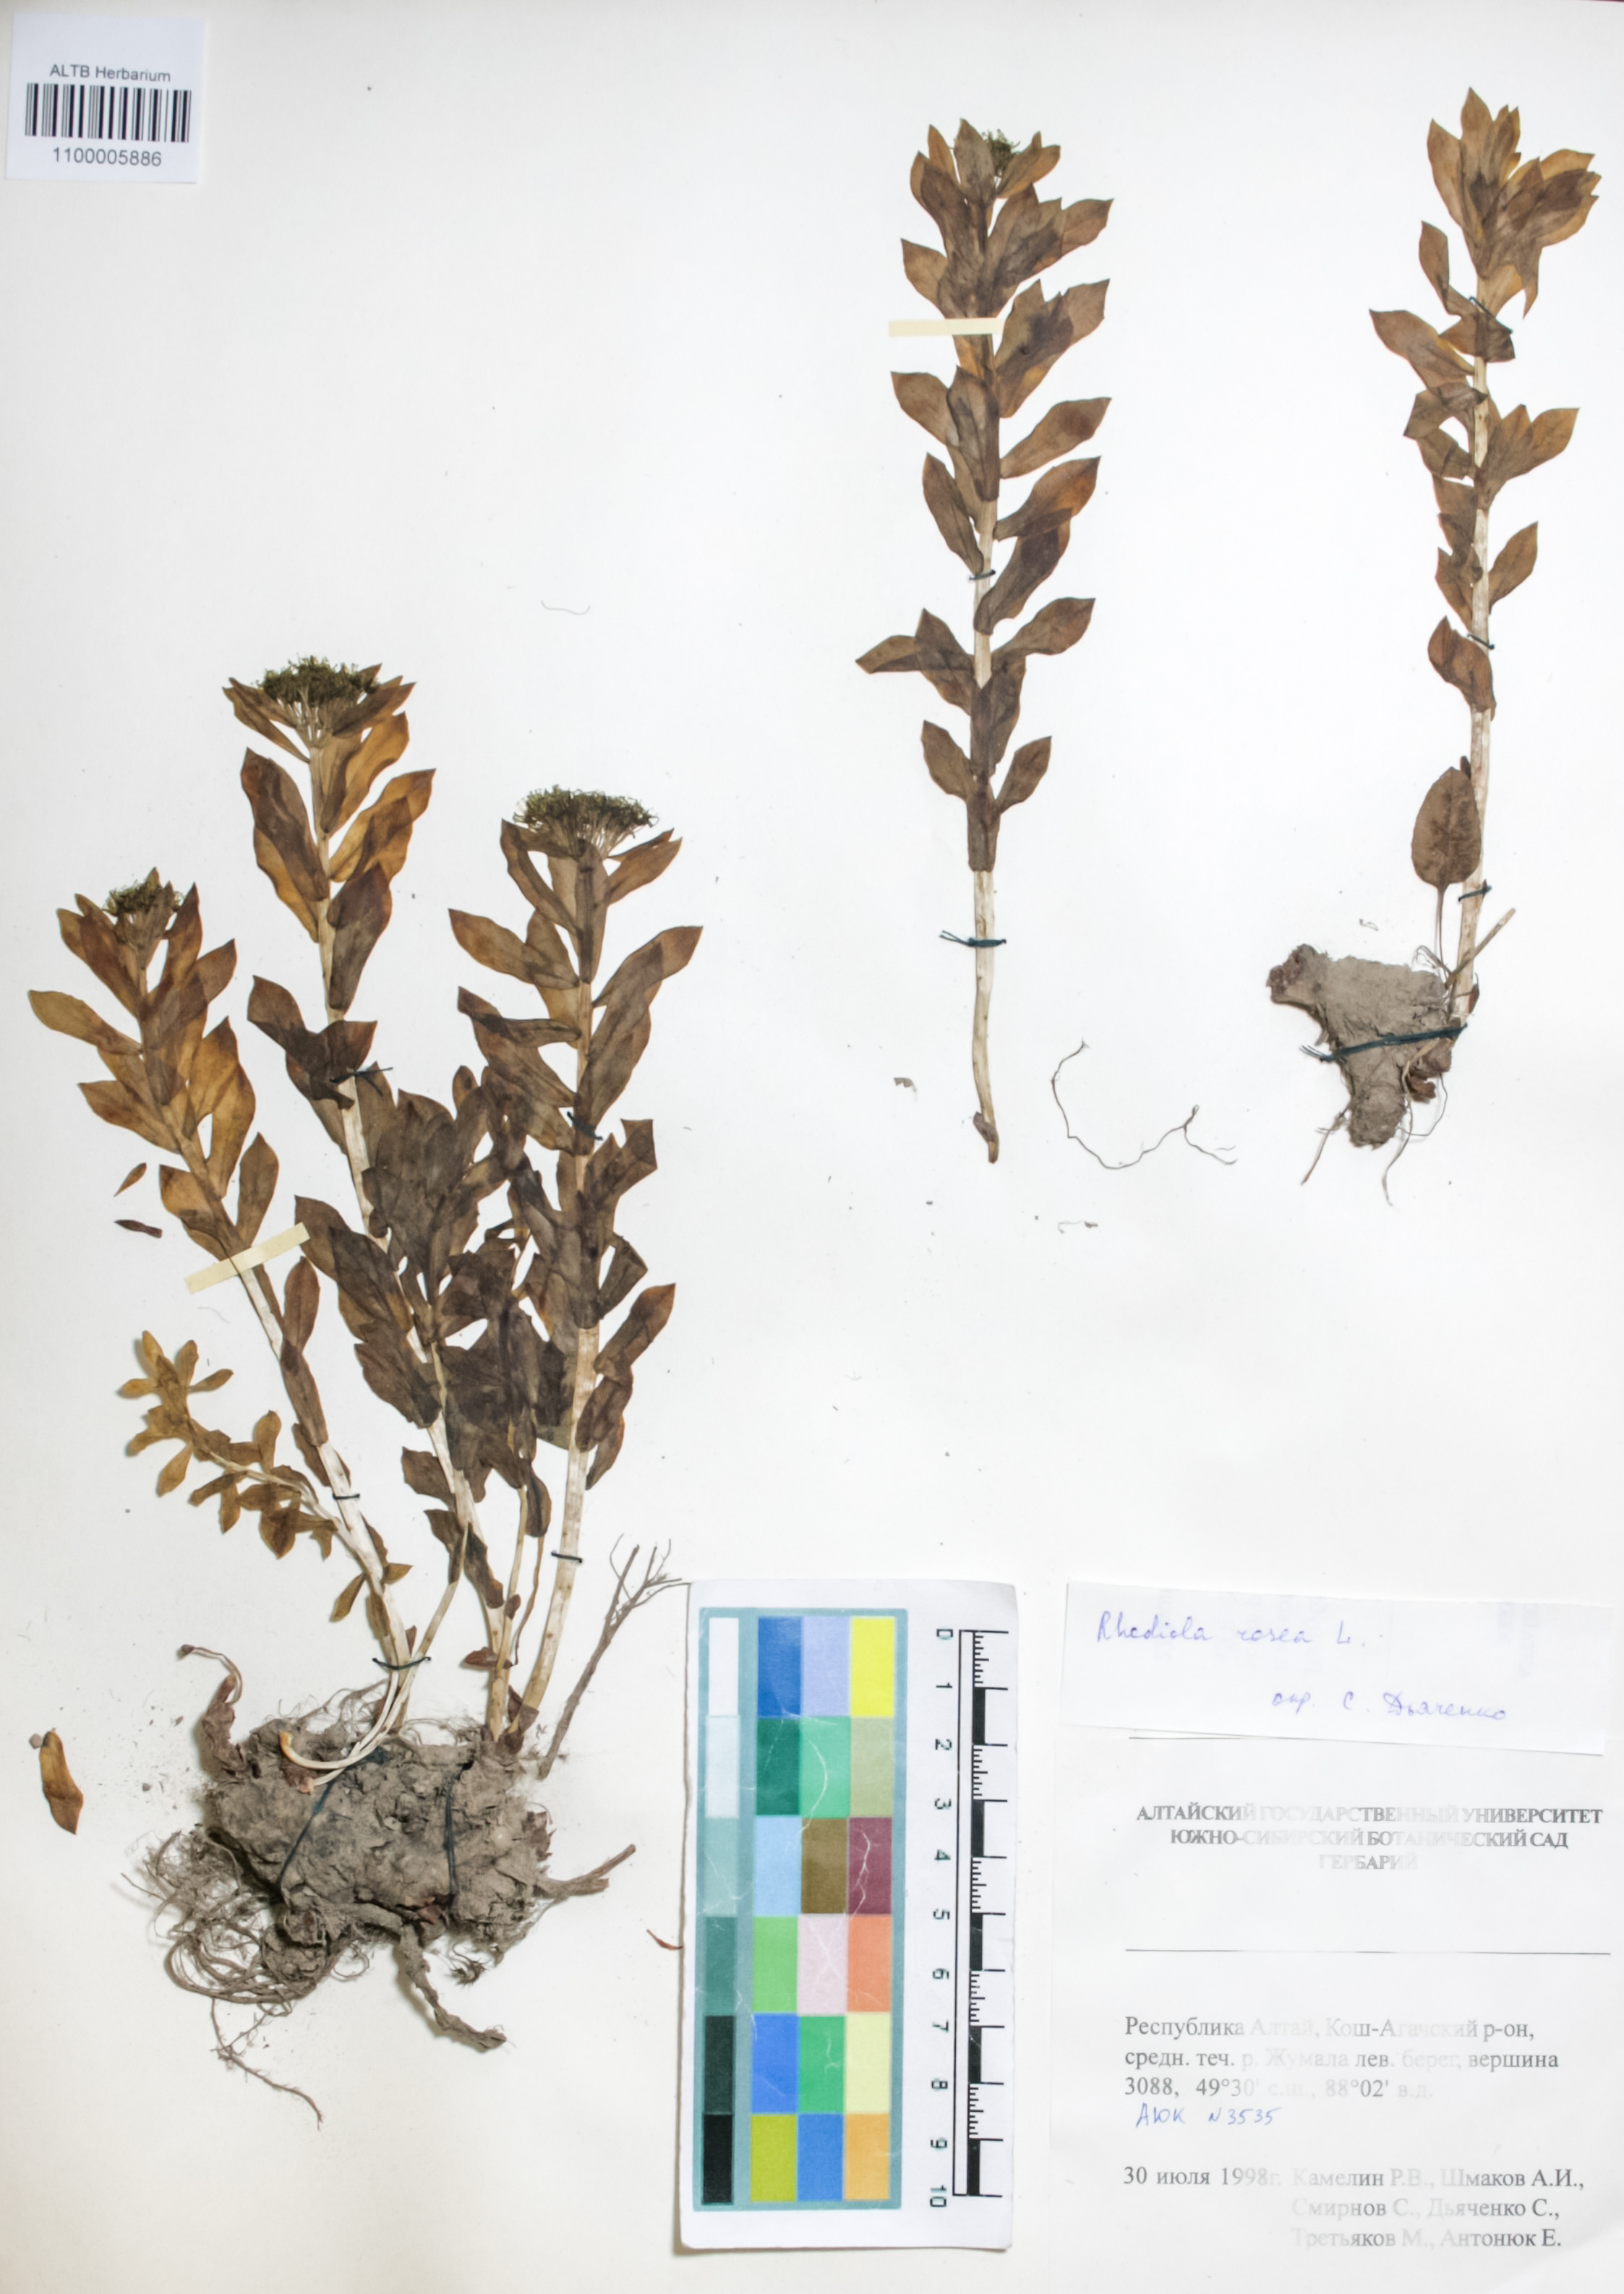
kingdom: Plantae
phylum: Tracheophyta
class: Magnoliopsida
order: Saxifragales
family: Crassulaceae
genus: Rhodiola
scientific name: Rhodiola rosea
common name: Roseroot
